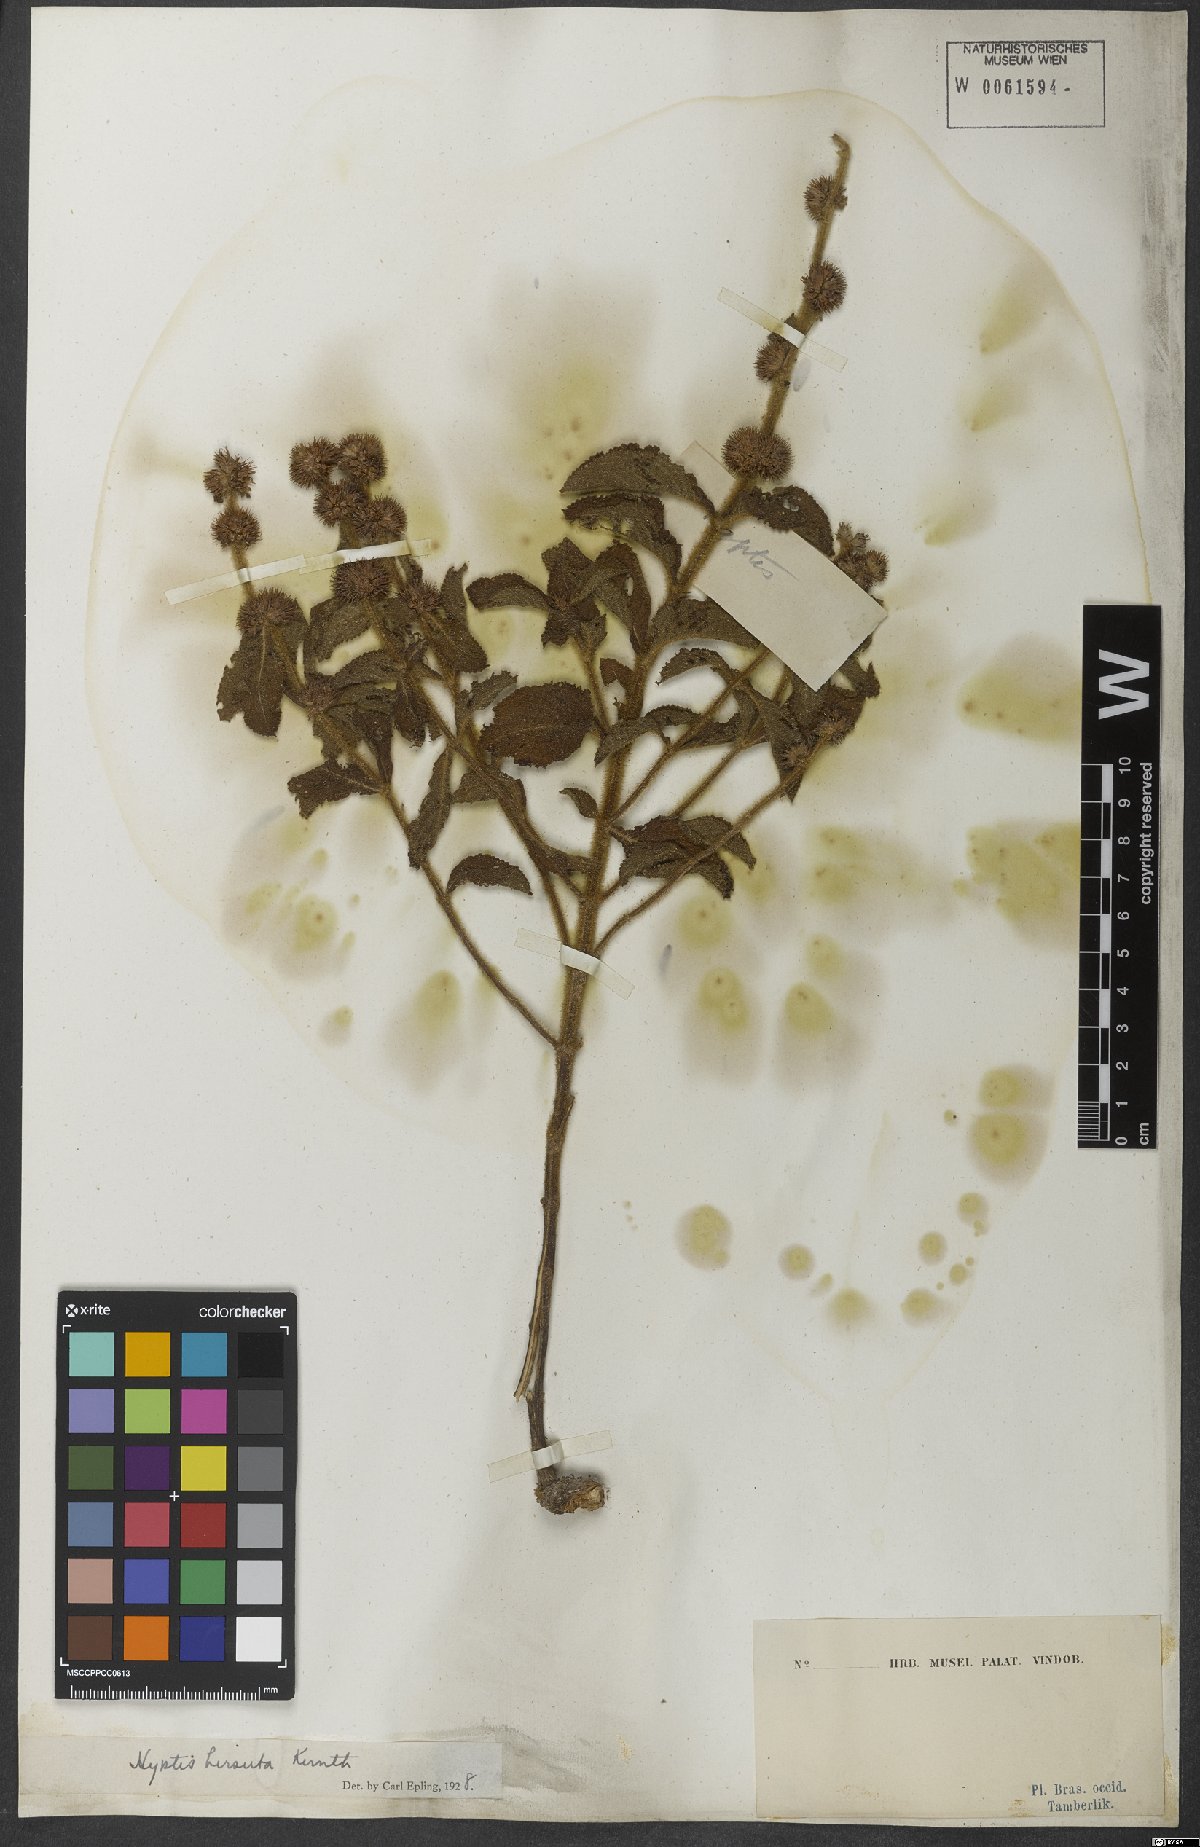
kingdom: Plantae
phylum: Tracheophyta
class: Magnoliopsida
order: Lamiales
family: Lamiaceae
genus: Hyptis
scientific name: Hyptis hirsuta
